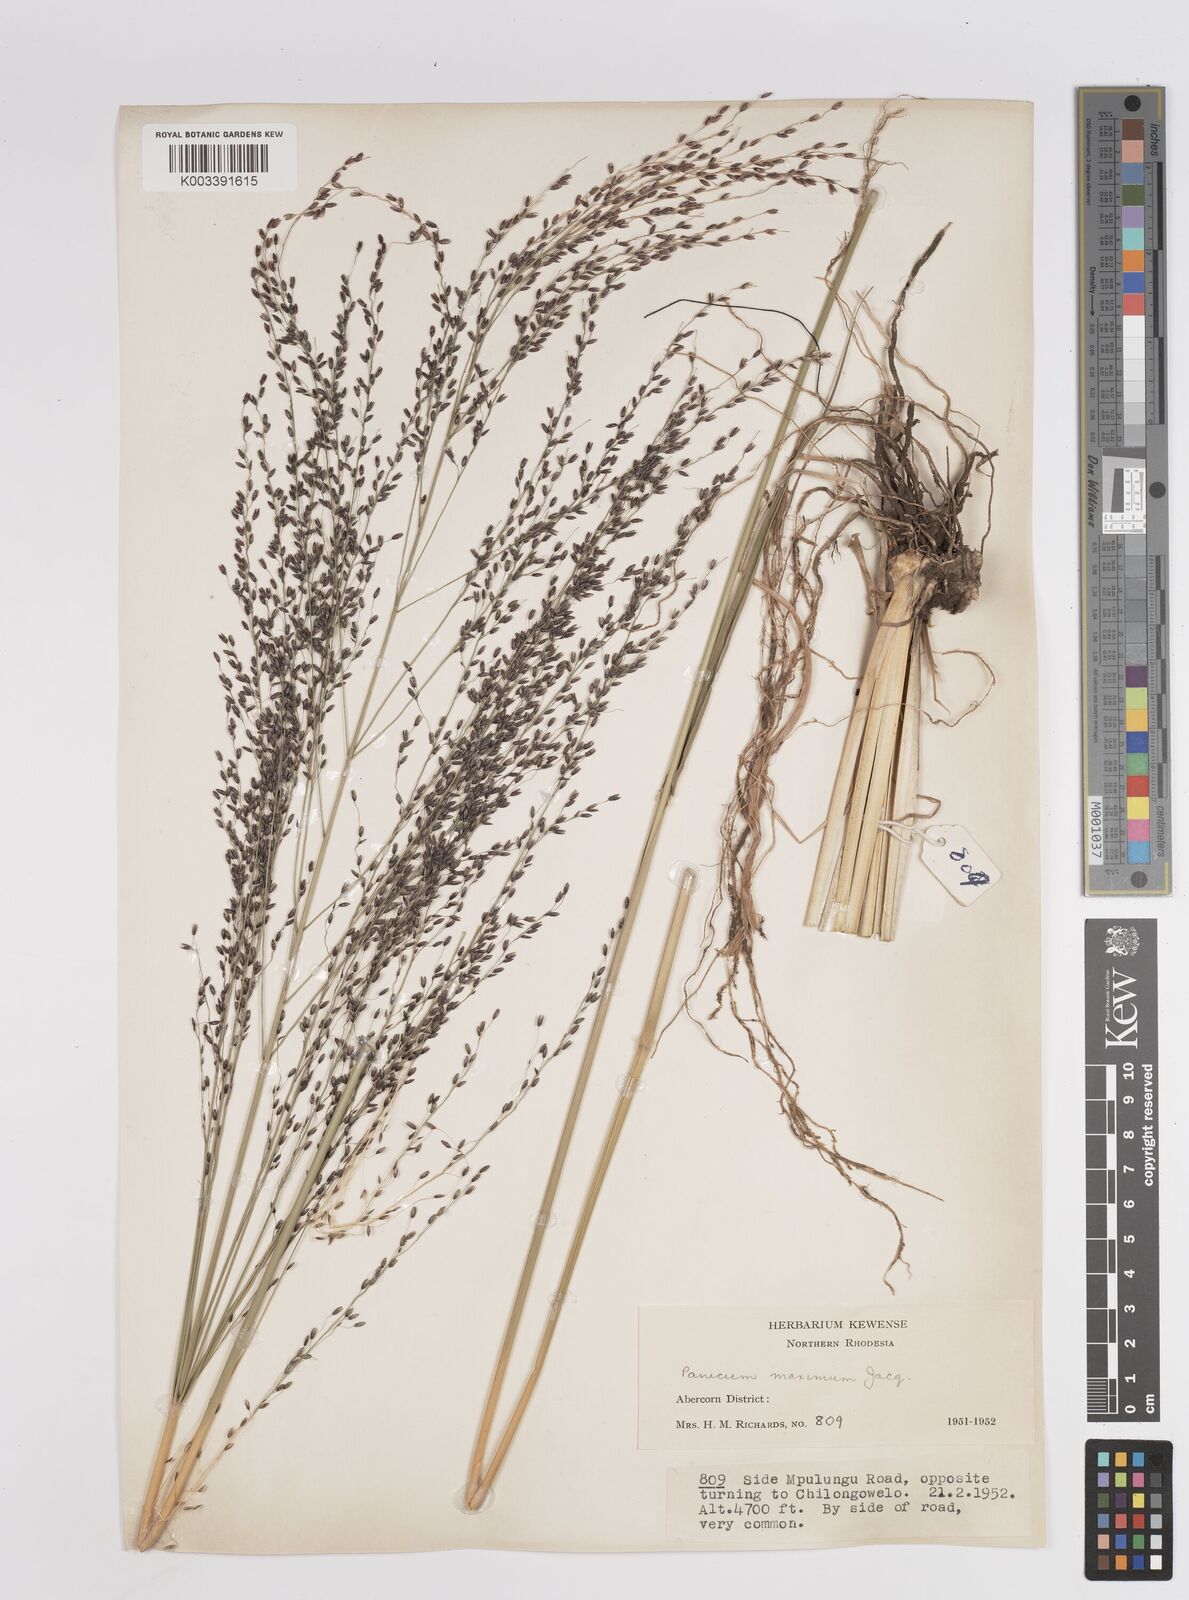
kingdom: Plantae
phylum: Tracheophyta
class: Liliopsida
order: Poales
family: Poaceae
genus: Megathyrsus
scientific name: Megathyrsus maximus
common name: Guineagrass
